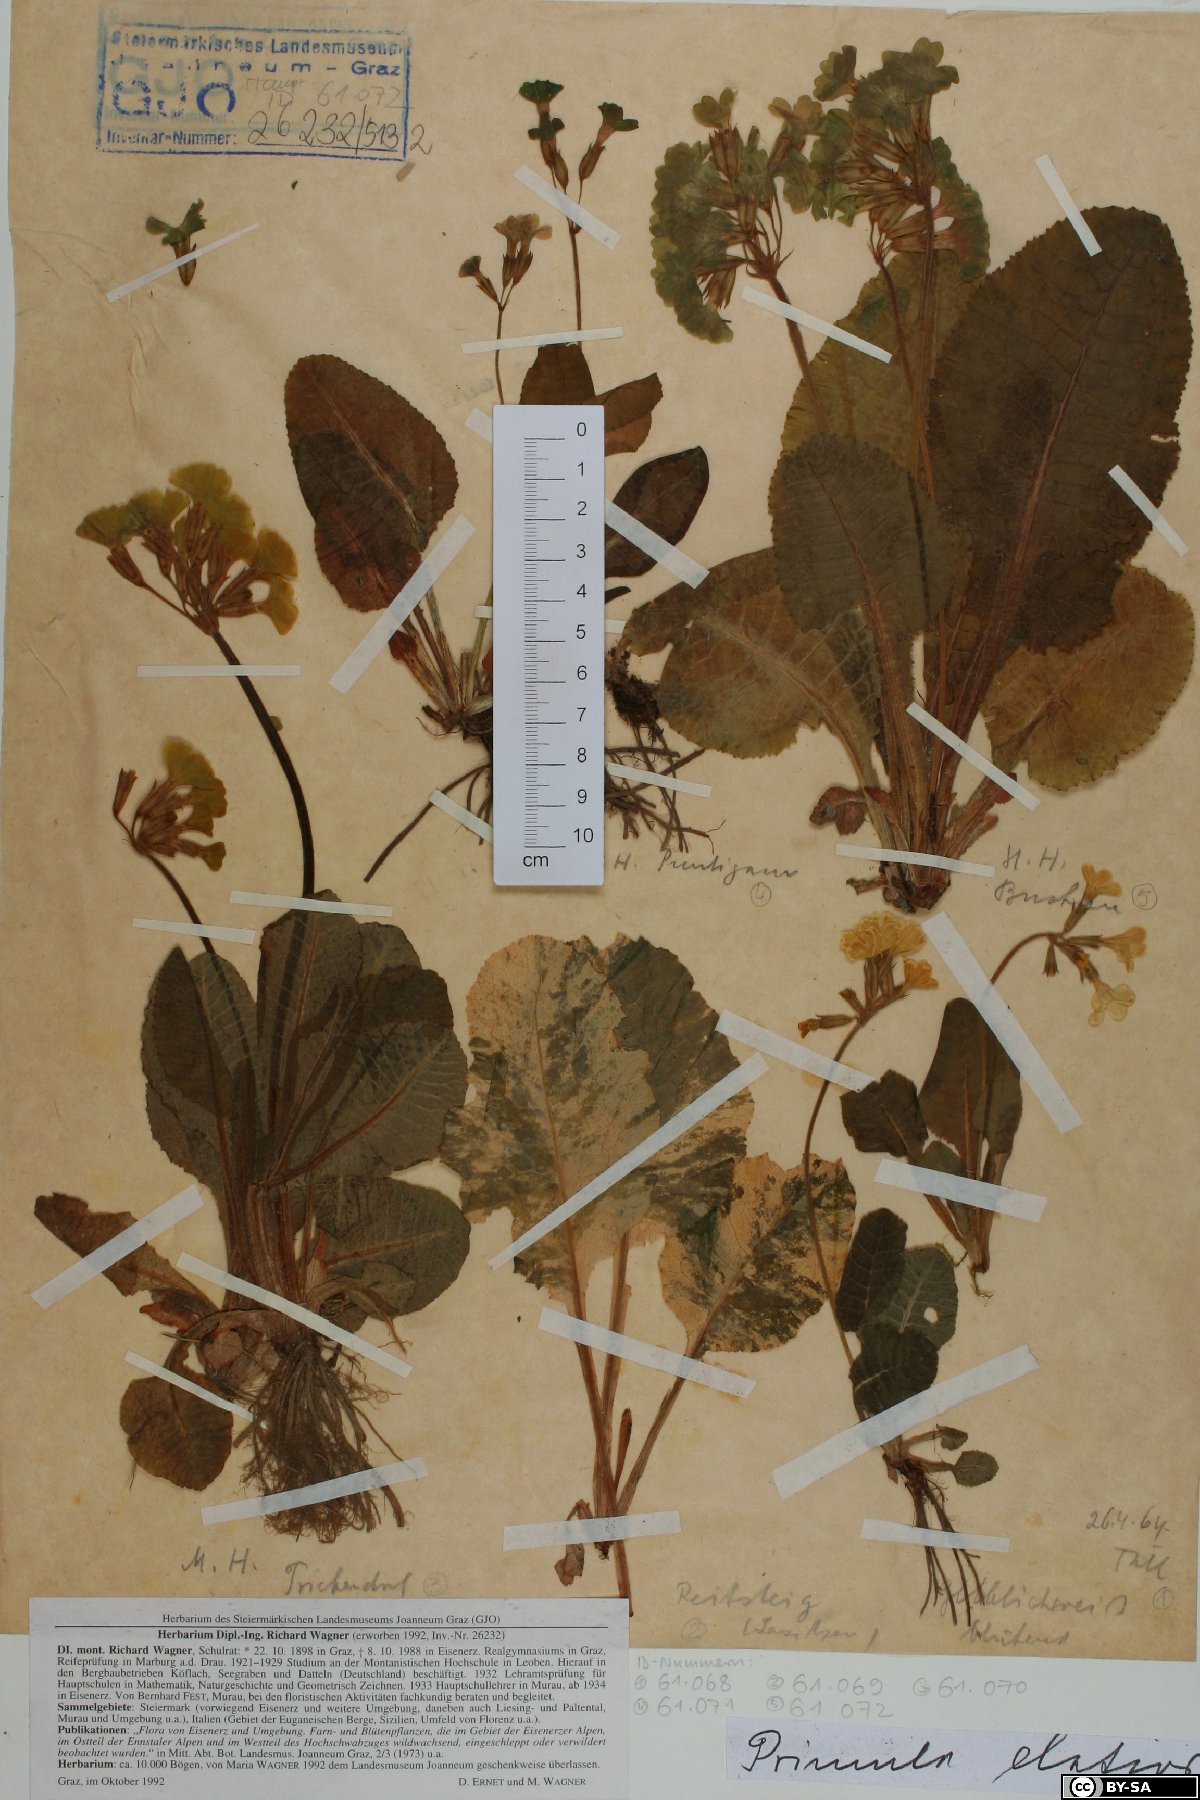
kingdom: Plantae
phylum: Tracheophyta
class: Magnoliopsida
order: Ericales
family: Primulaceae
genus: Primula
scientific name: Primula elatior
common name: Oxlip
